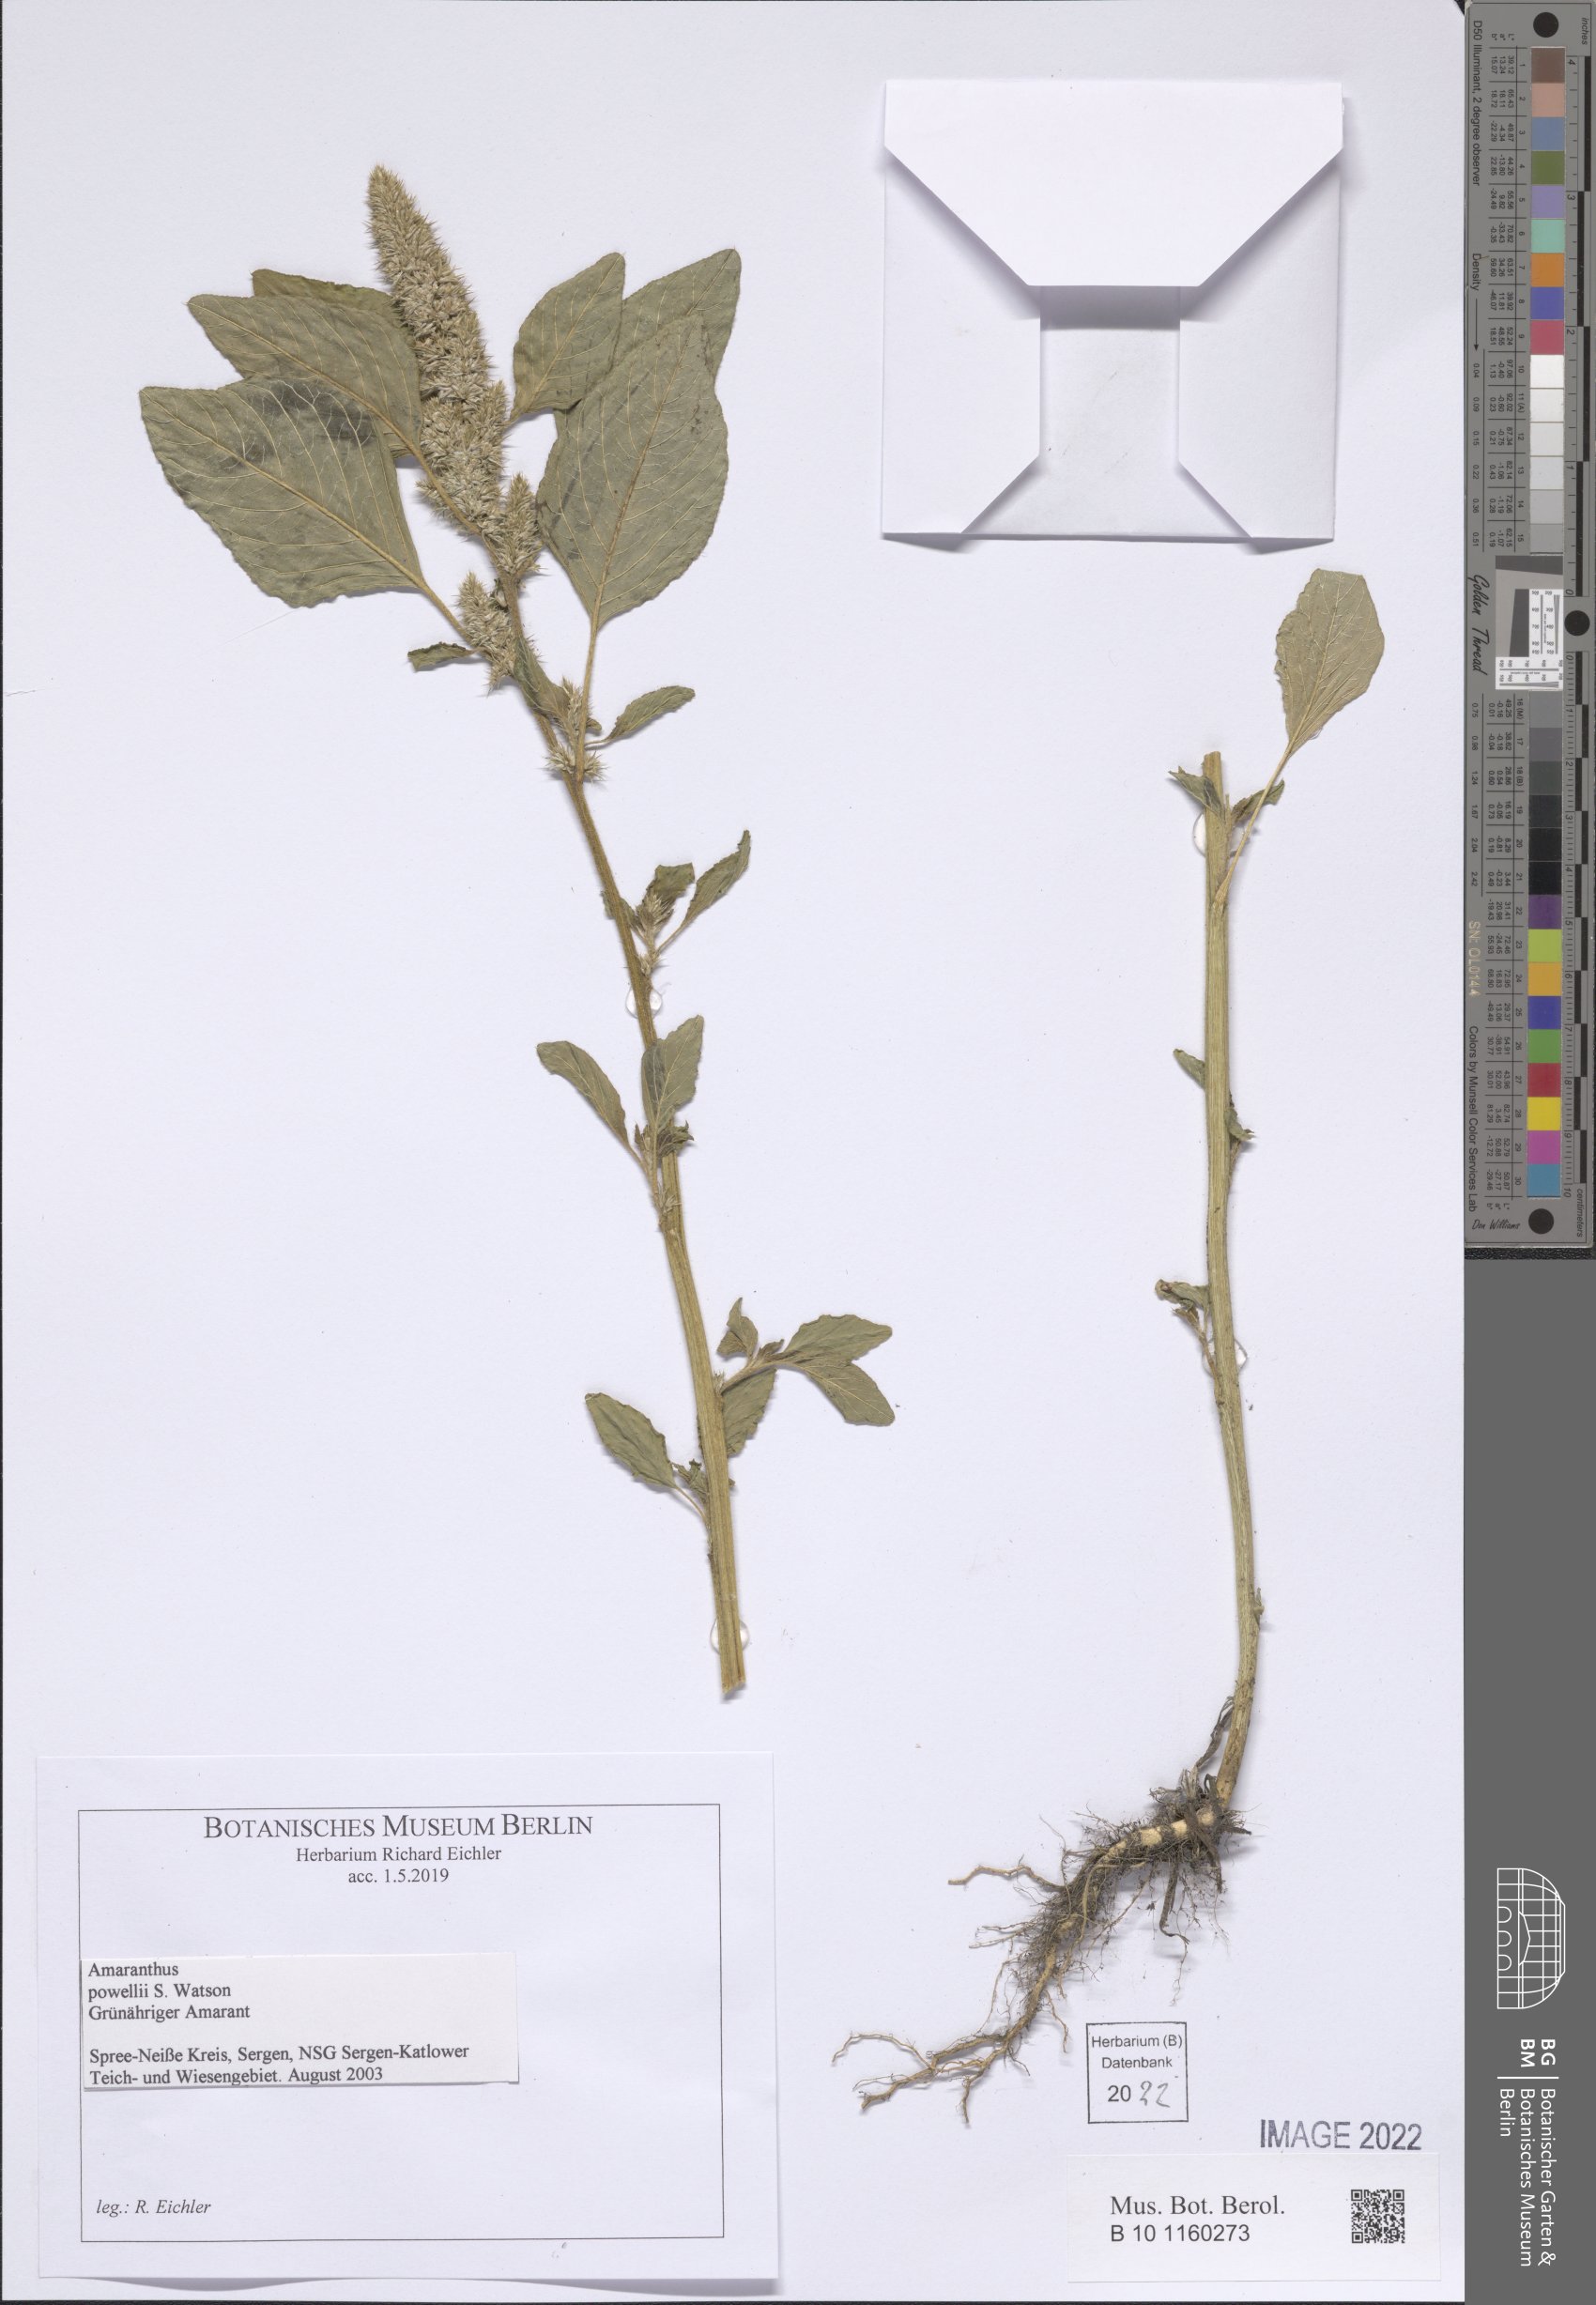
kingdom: Plantae
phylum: Tracheophyta
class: Magnoliopsida
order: Caryophyllales
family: Amaranthaceae
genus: Amaranthus
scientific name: Amaranthus powellii
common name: Powell's amaranth
